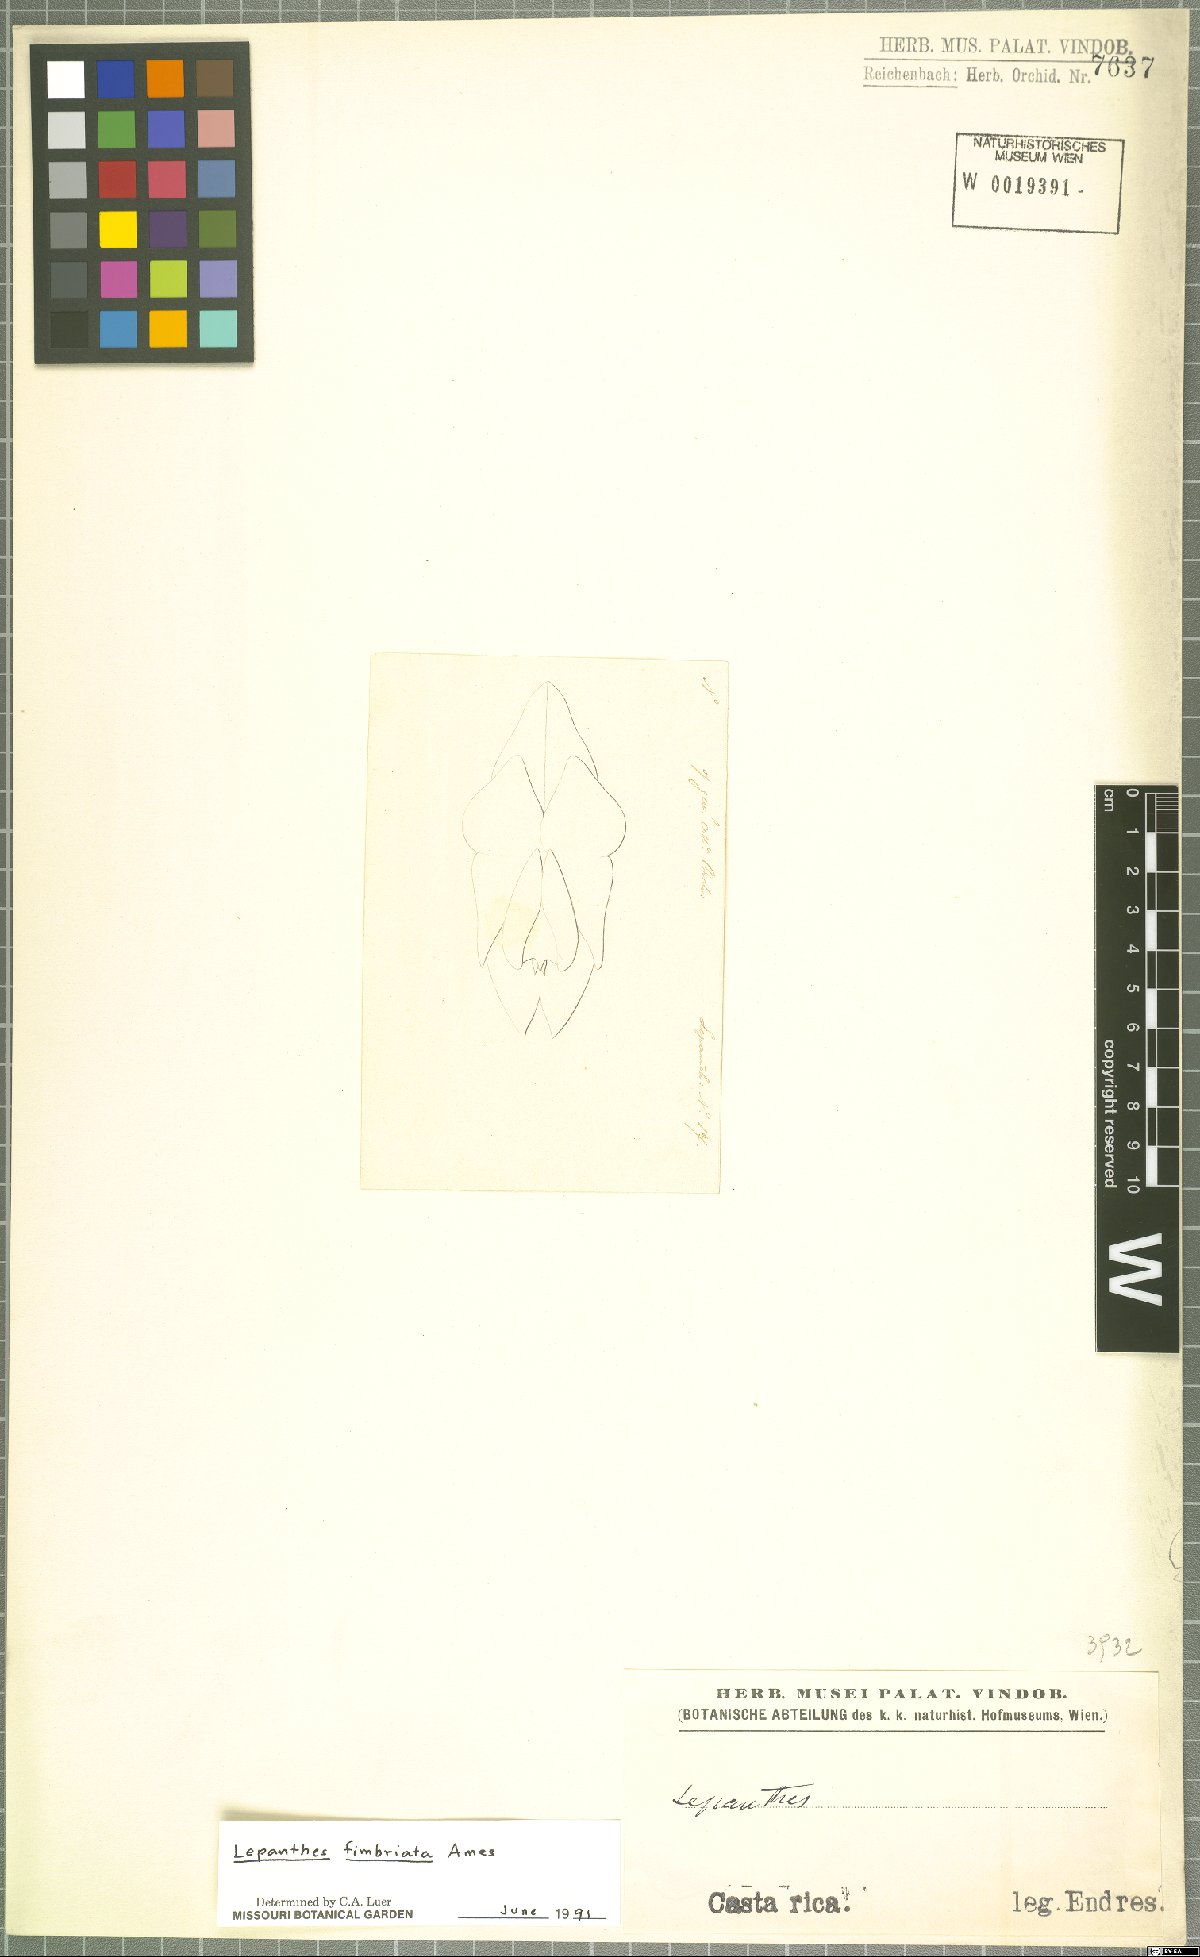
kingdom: Plantae
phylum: Tracheophyta
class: Liliopsida
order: Asparagales
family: Orchidaceae
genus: Lepanthes
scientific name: Lepanthes fimbriata
